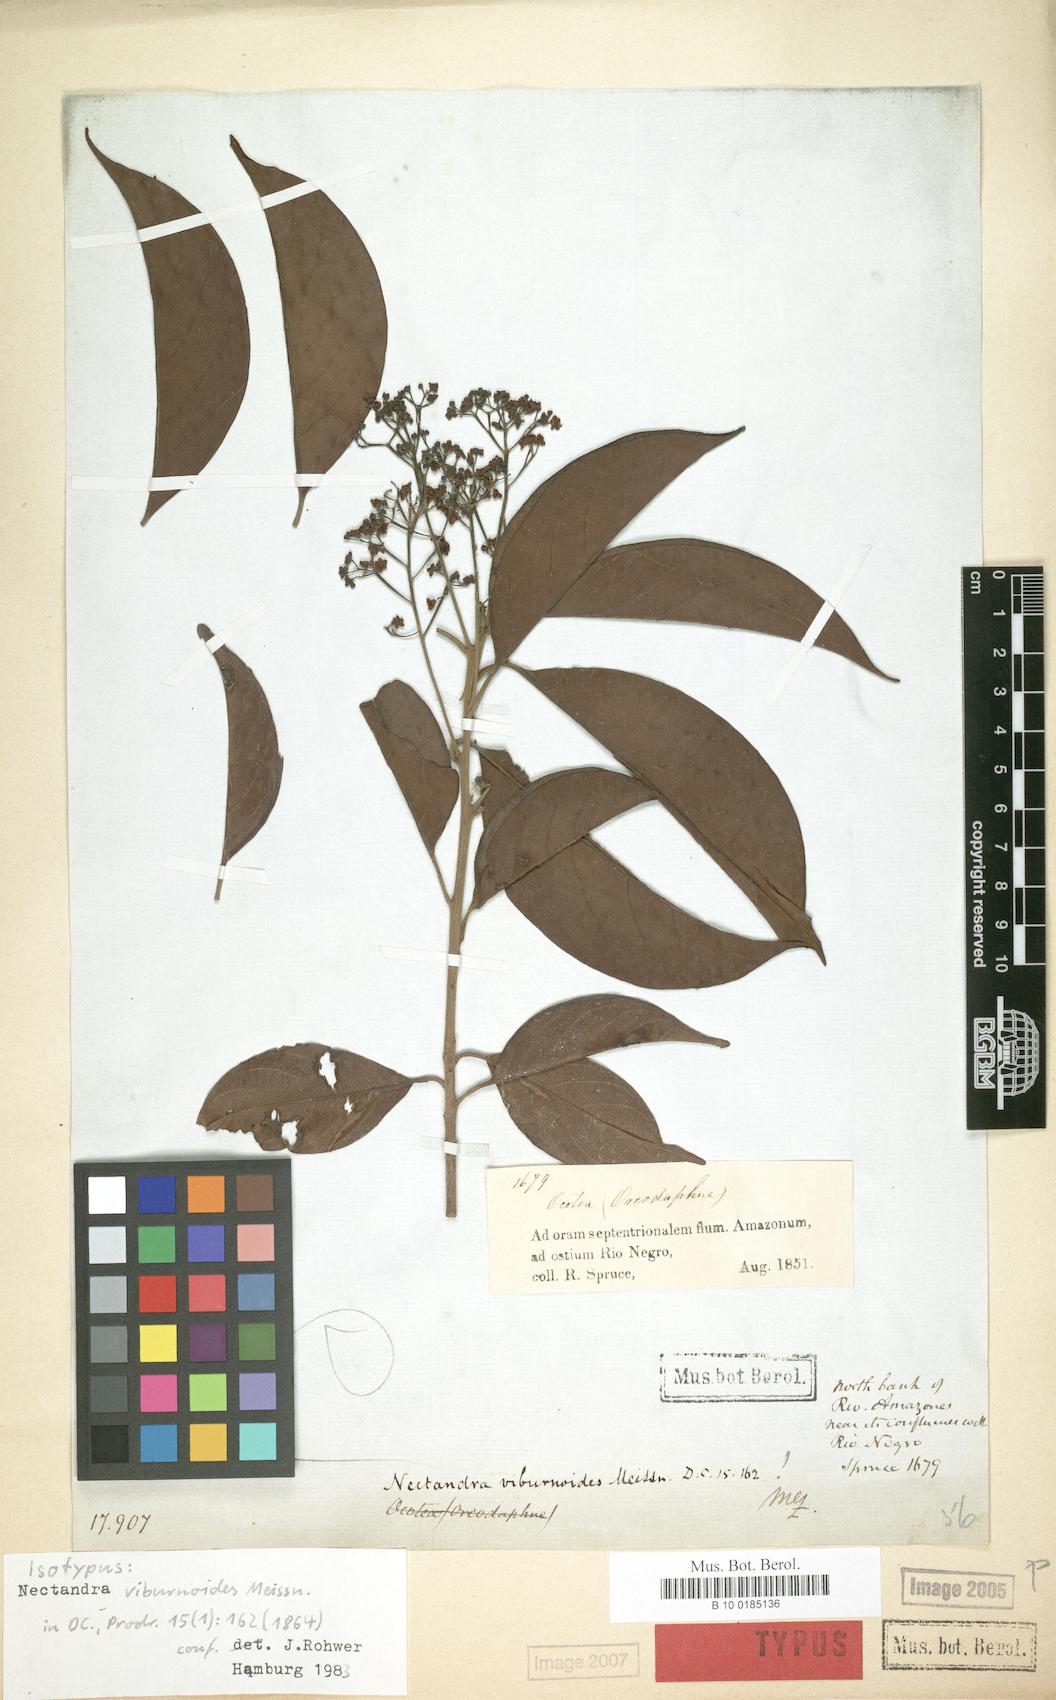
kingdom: Plantae
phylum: Tracheophyta
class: Magnoliopsida
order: Laurales
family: Lauraceae
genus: Nectandra
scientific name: Nectandra viburnoides
